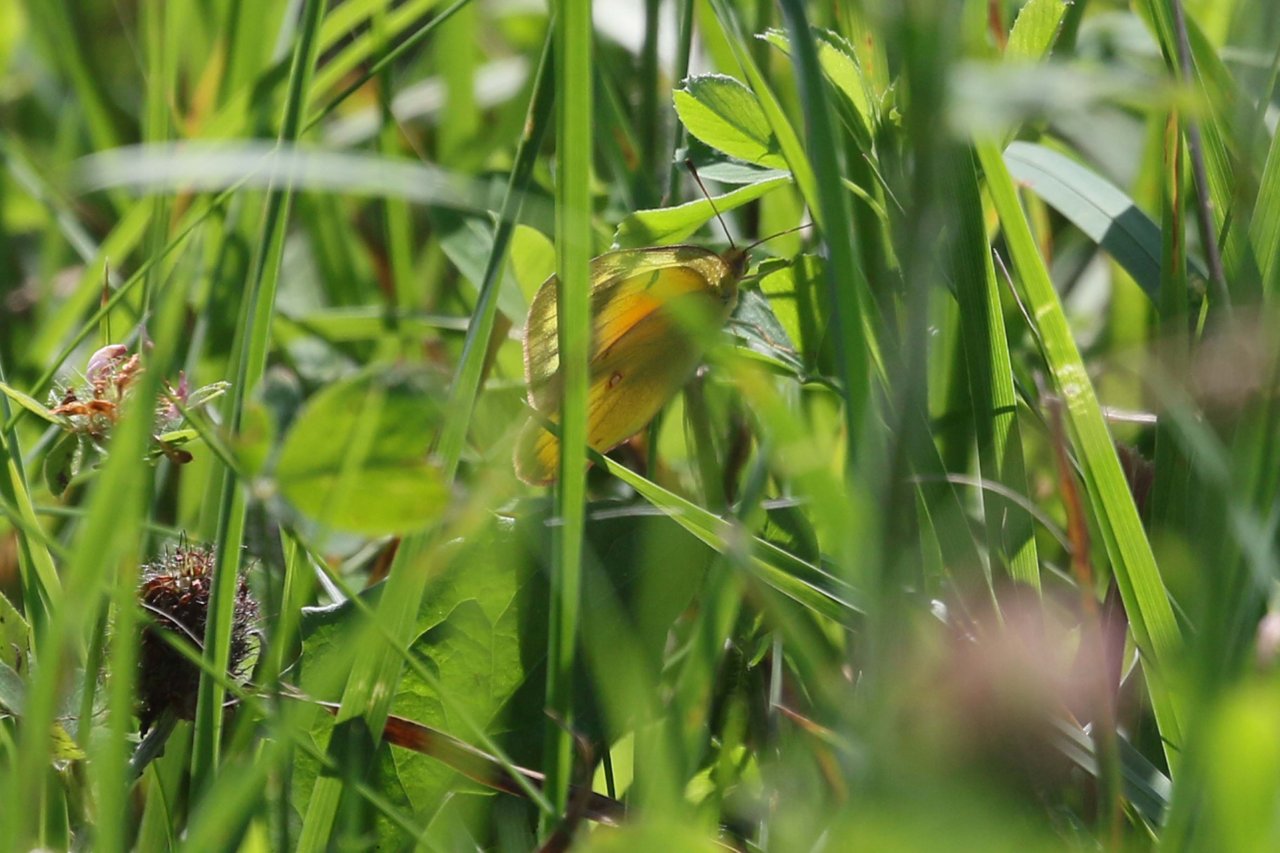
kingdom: Animalia
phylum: Arthropoda
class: Insecta
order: Lepidoptera
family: Pieridae
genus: Colias
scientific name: Colias eurytheme
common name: Orange Sulphur
